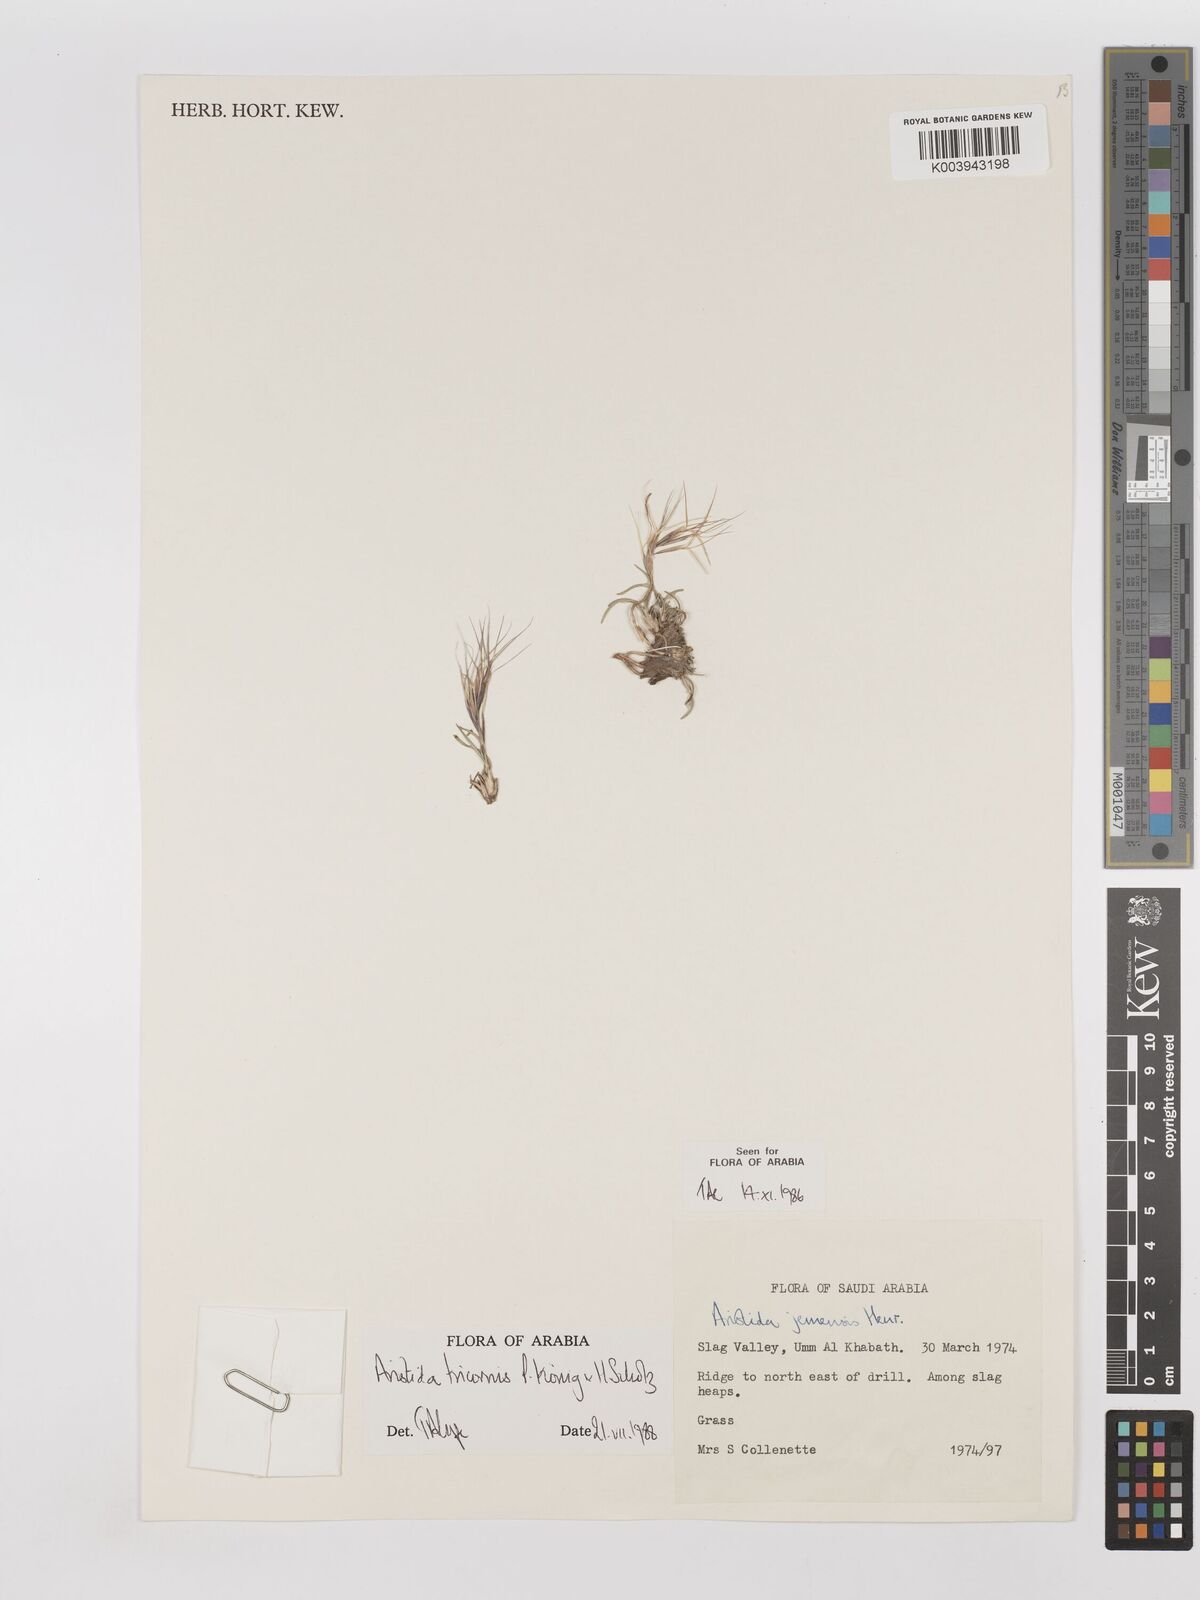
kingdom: Plantae
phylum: Tracheophyta
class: Liliopsida
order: Poales
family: Poaceae
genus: Aristida
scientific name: Aristida tricornis
